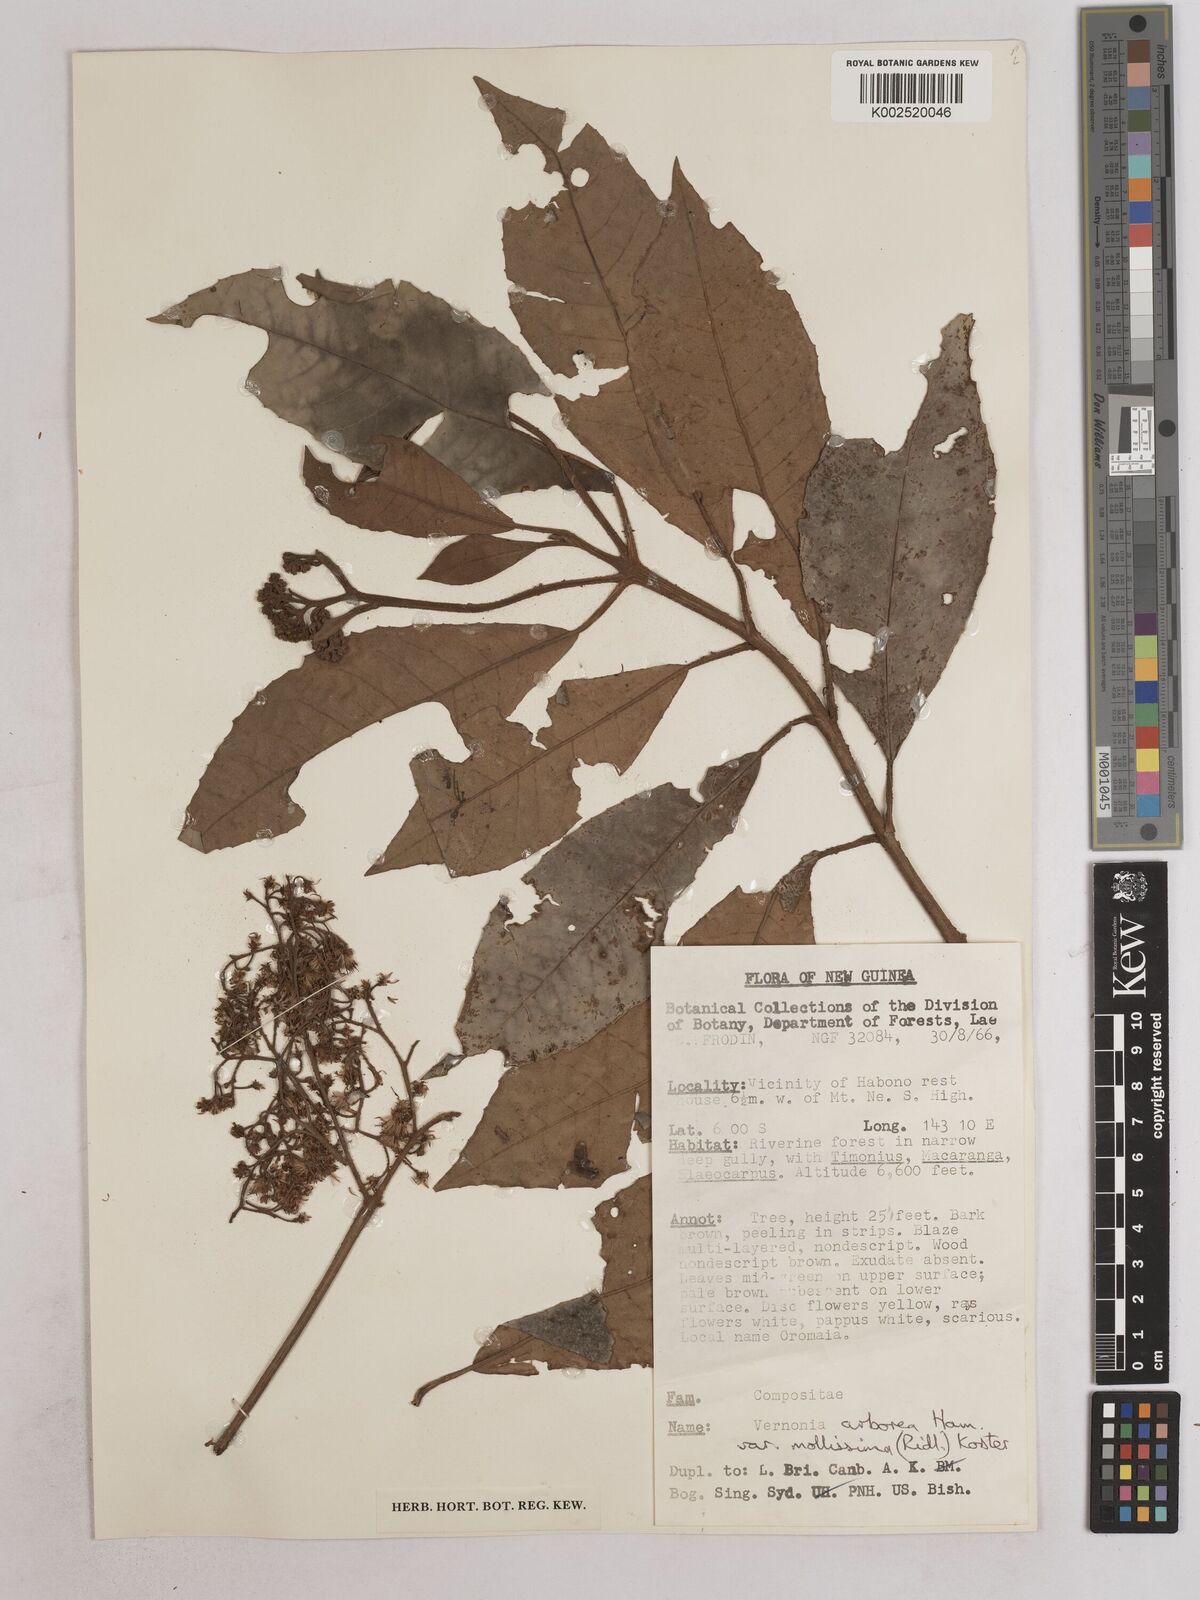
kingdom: Plantae
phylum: Tracheophyta
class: Magnoliopsida
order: Asterales
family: Asteraceae
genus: Strobocalyx
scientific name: Strobocalyx arborea
